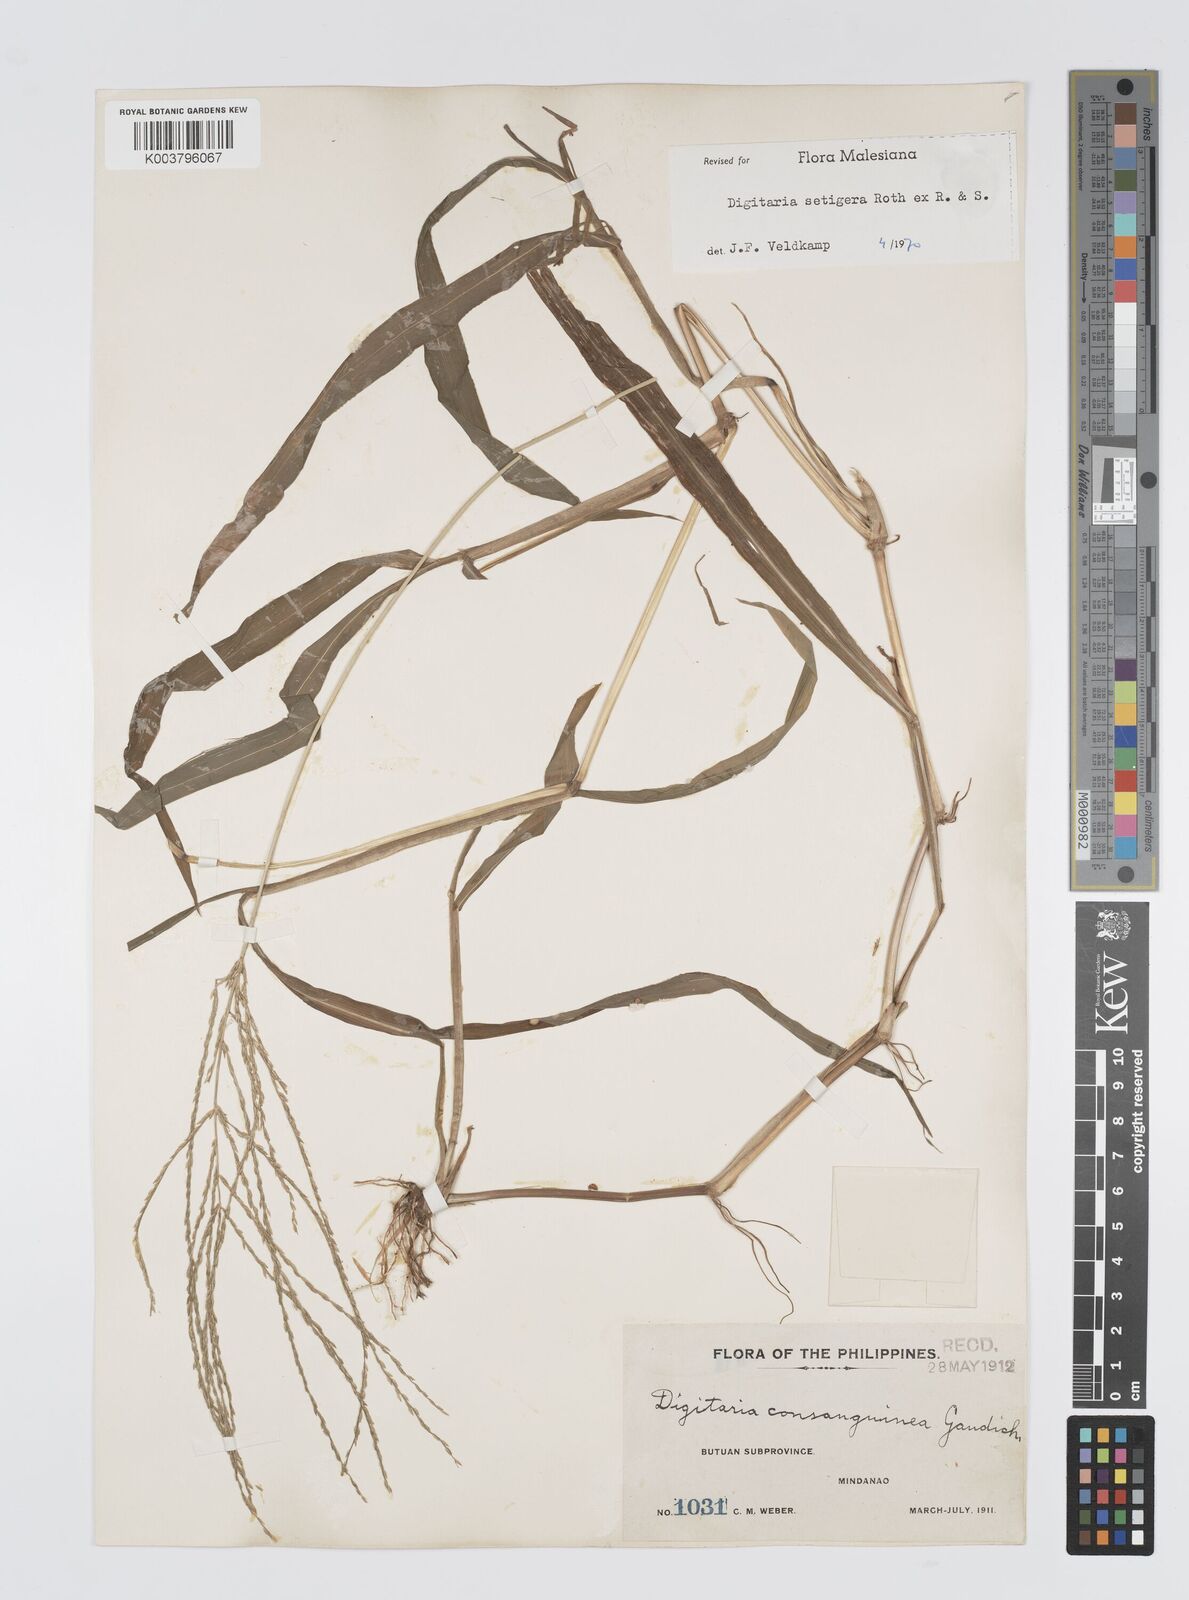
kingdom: Plantae
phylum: Tracheophyta
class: Liliopsida
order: Poales
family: Poaceae
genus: Digitaria
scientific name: Digitaria setigera
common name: East indian crabgrass
